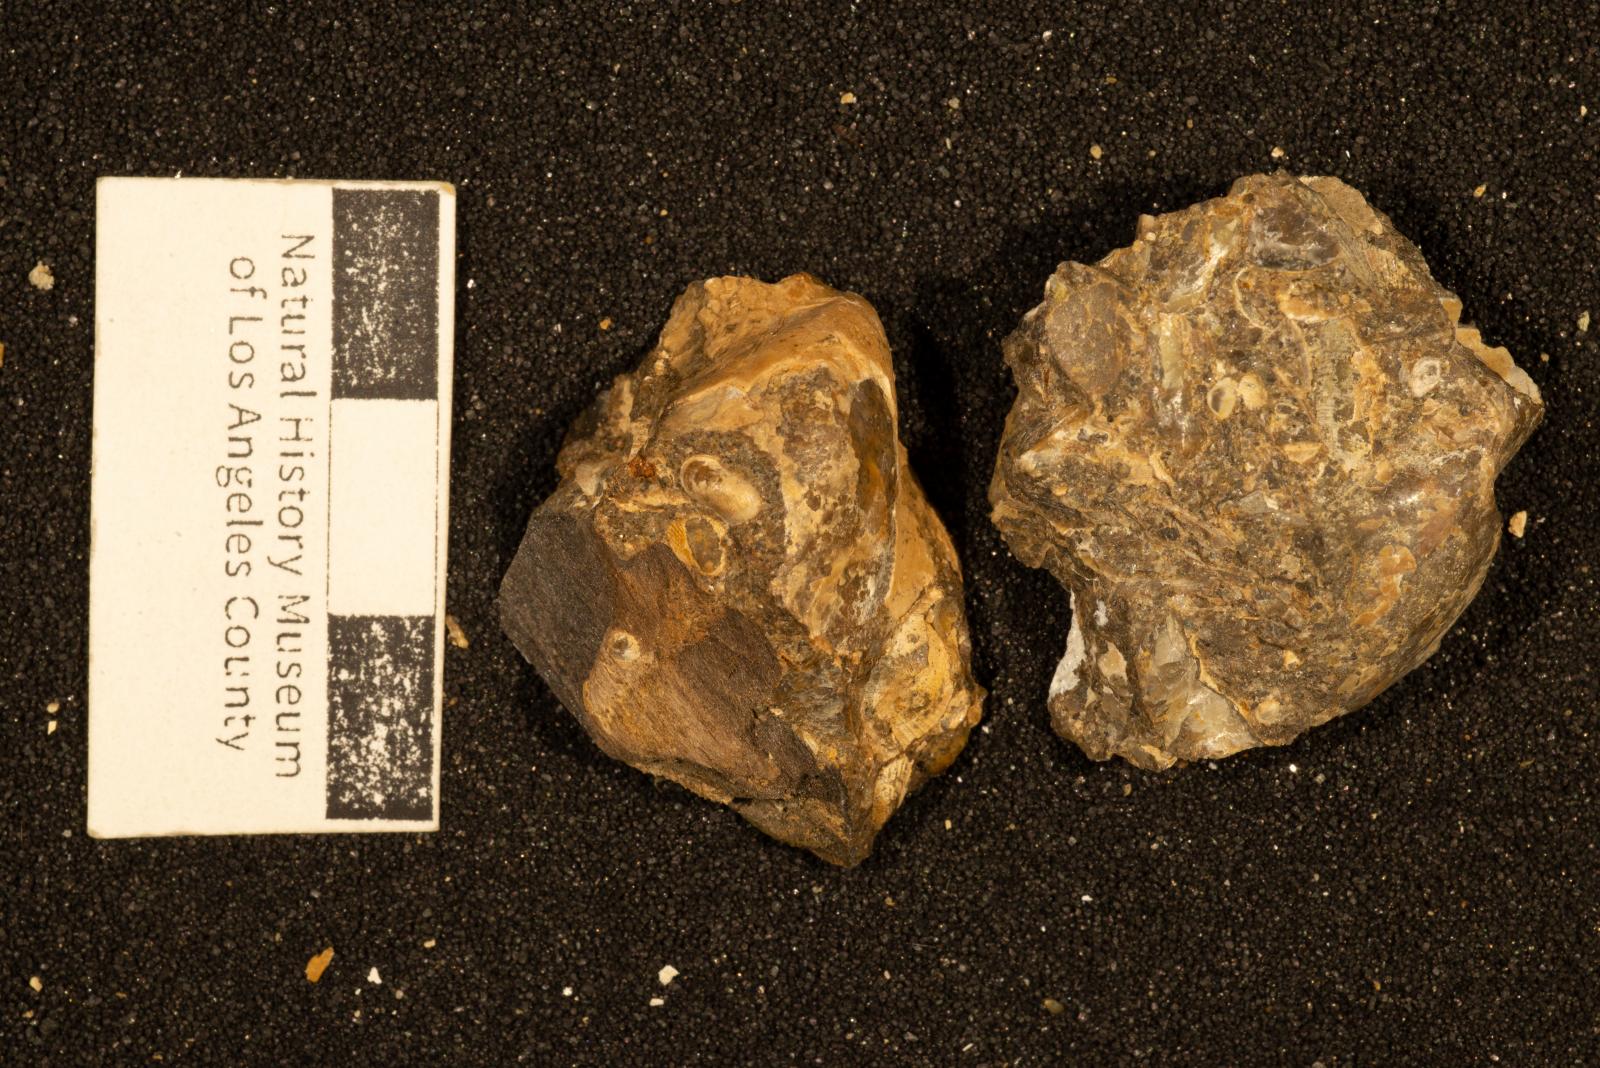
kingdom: Animalia
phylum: Mollusca
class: Bivalvia
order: Ostreida
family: Pteriidae
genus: Pteria
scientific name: Pteria pellucida
